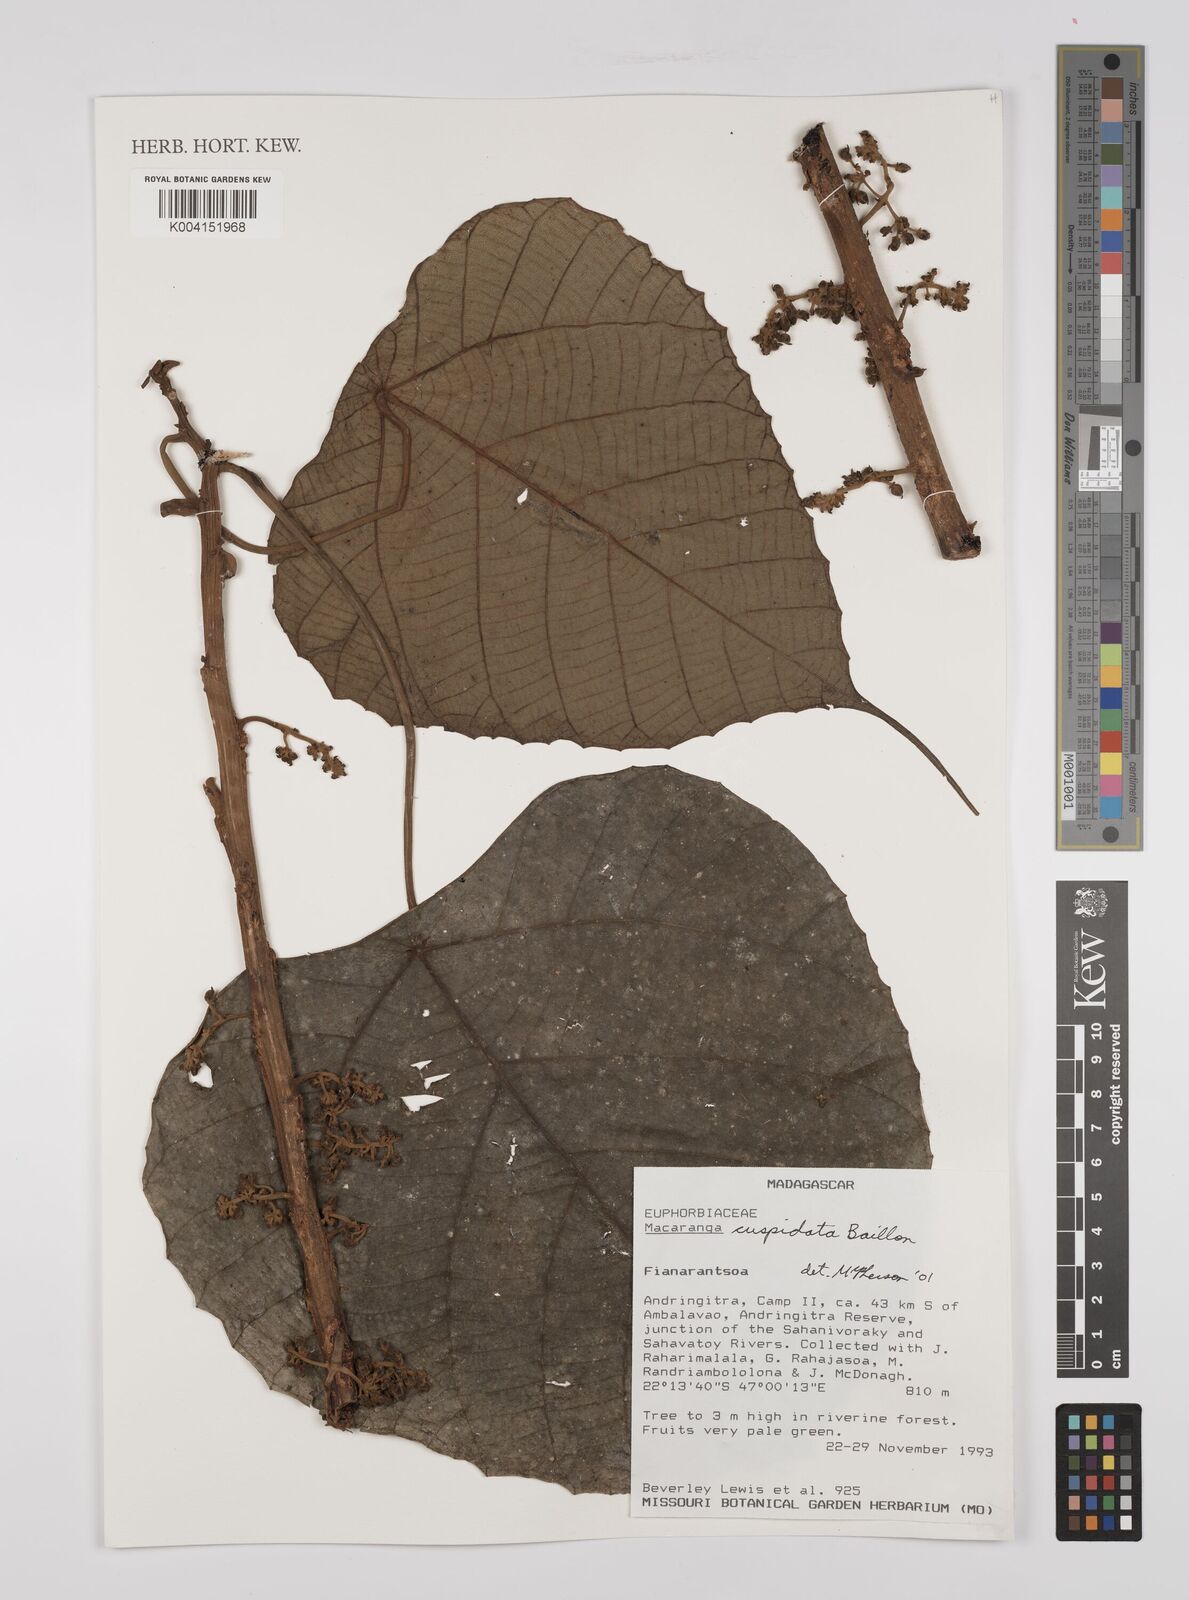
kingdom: Plantae
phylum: Tracheophyta
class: Magnoliopsida
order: Malpighiales
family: Euphorbiaceae
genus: Macaranga
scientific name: Macaranga cuspidata
